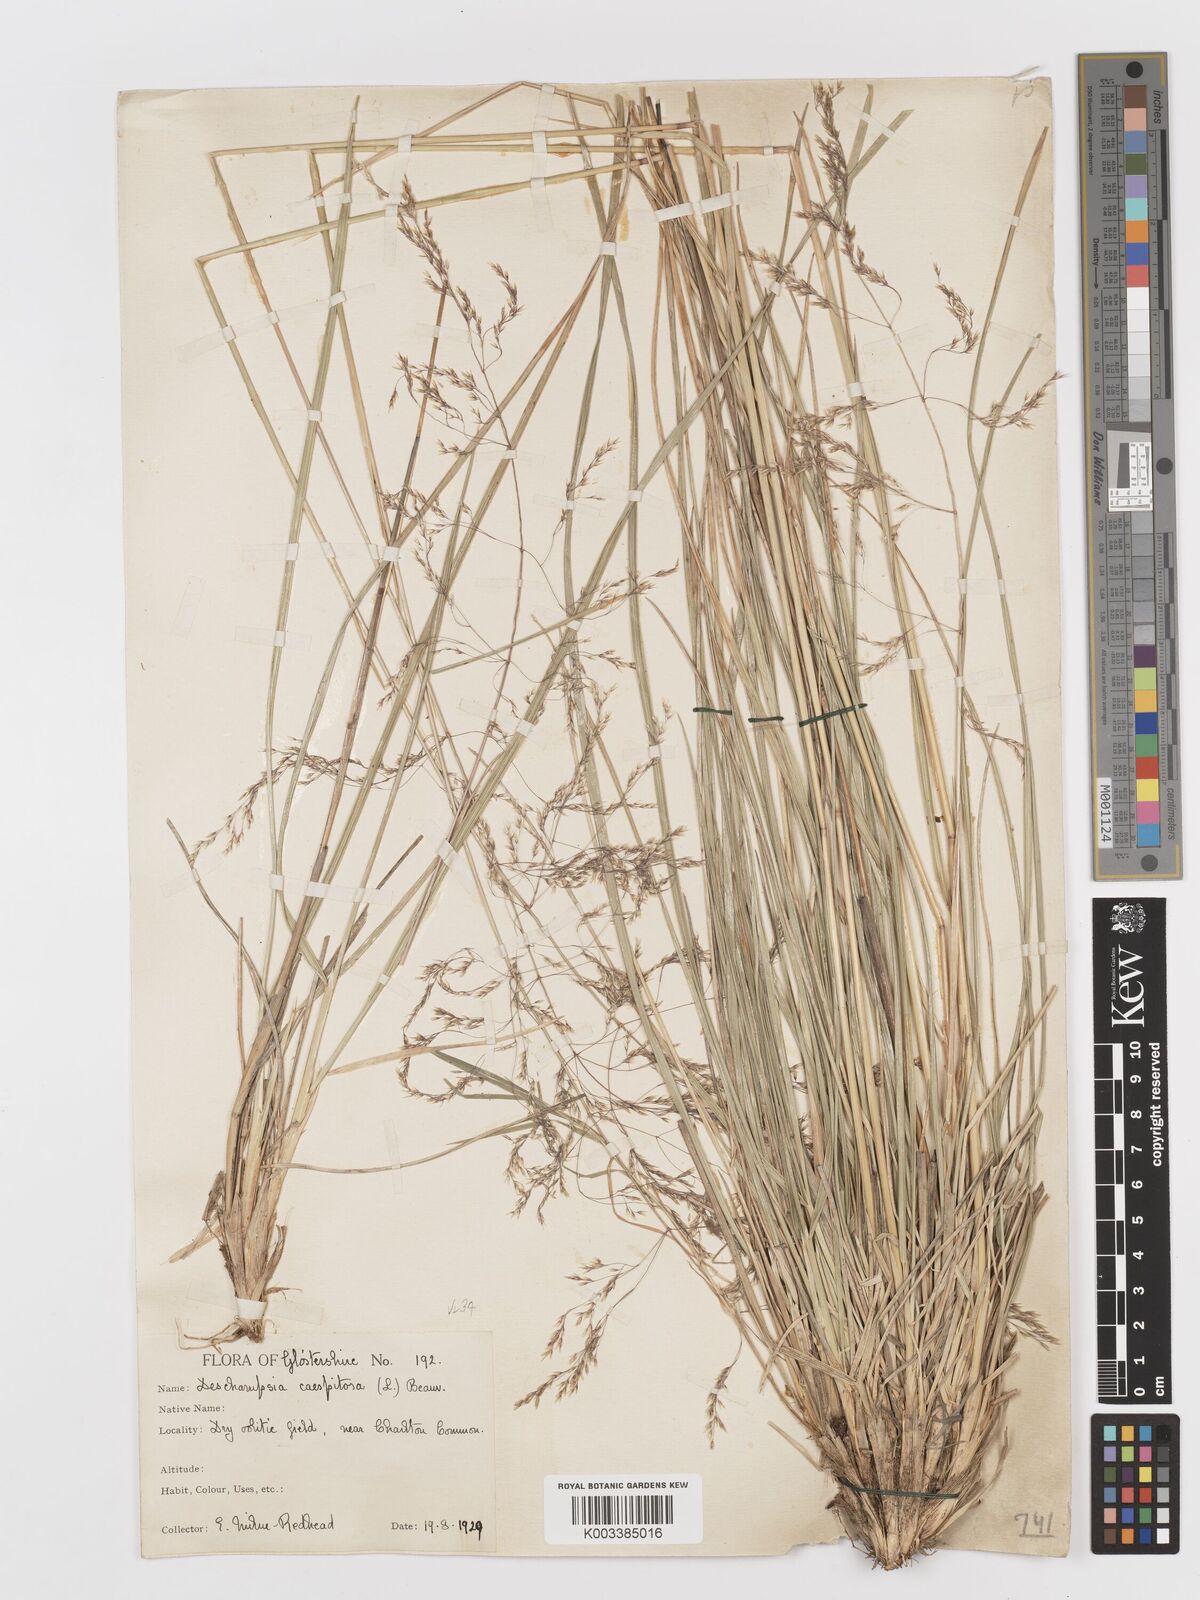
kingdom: Plantae
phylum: Tracheophyta
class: Liliopsida
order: Poales
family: Poaceae
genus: Deschampsia
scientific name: Deschampsia cespitosa
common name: Tufted hair-grass
